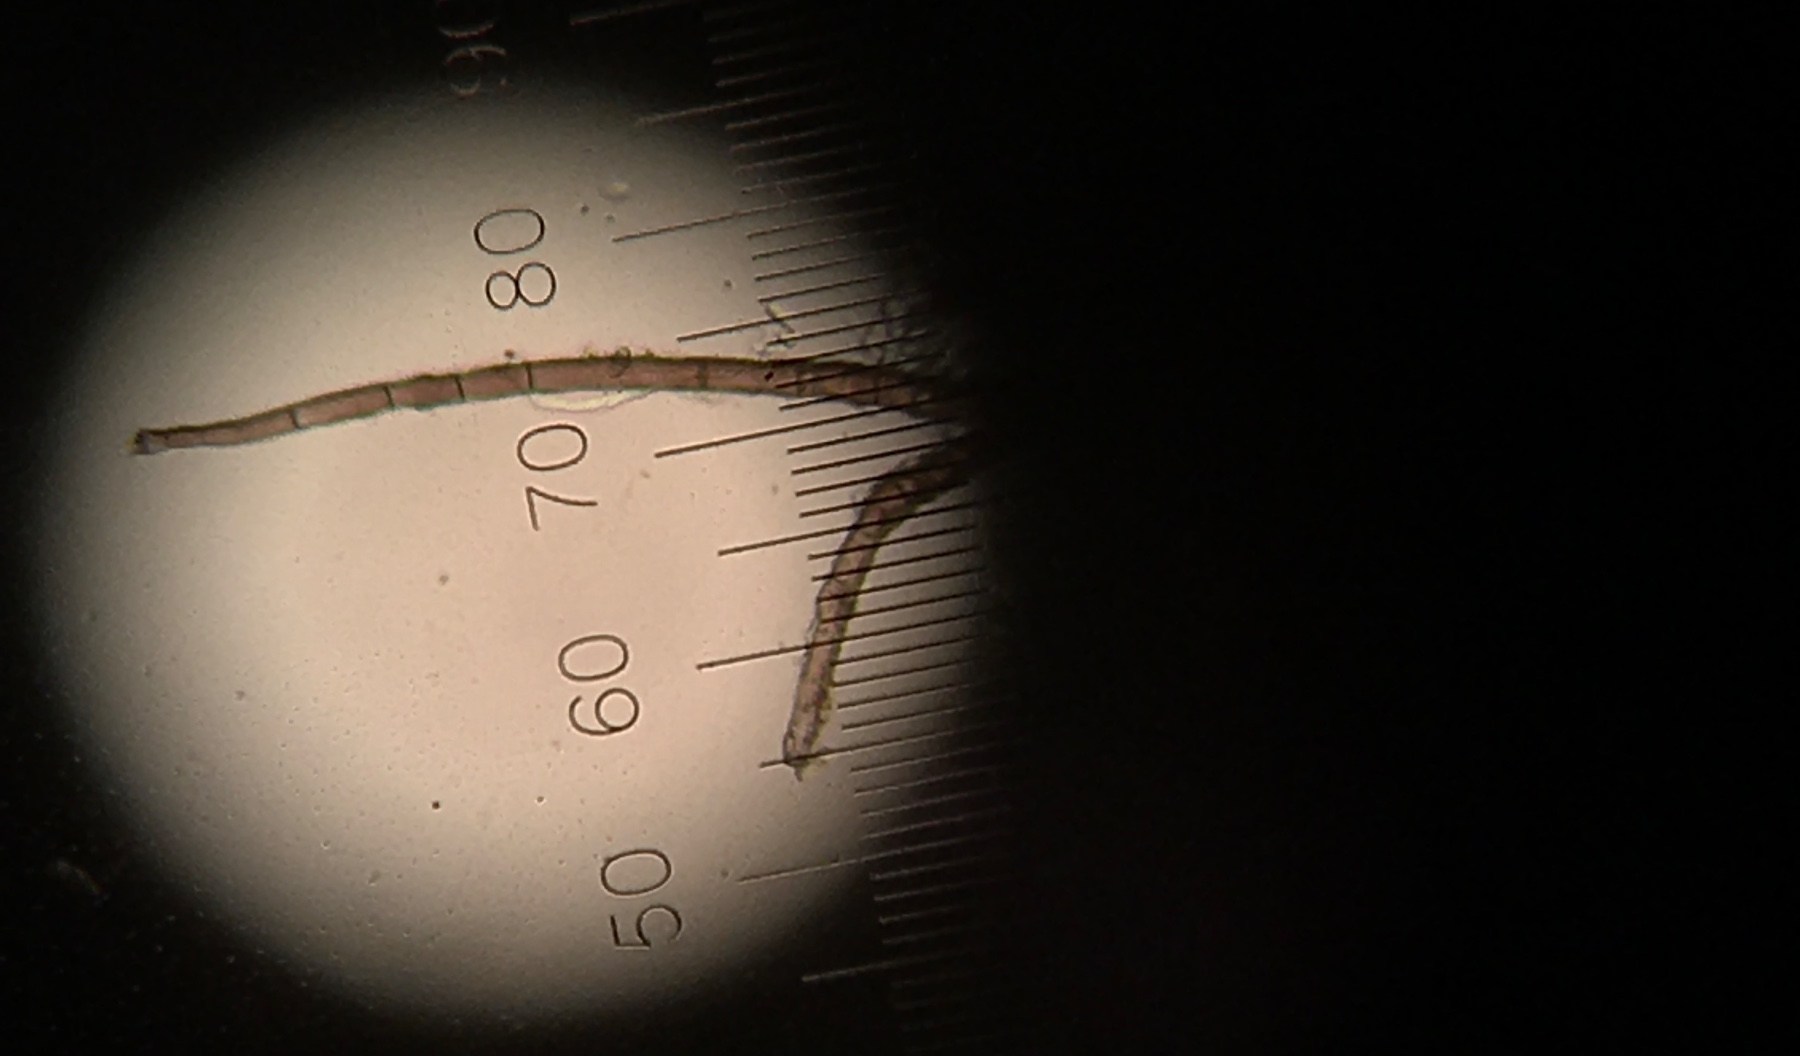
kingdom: Fungi
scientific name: Fungi
